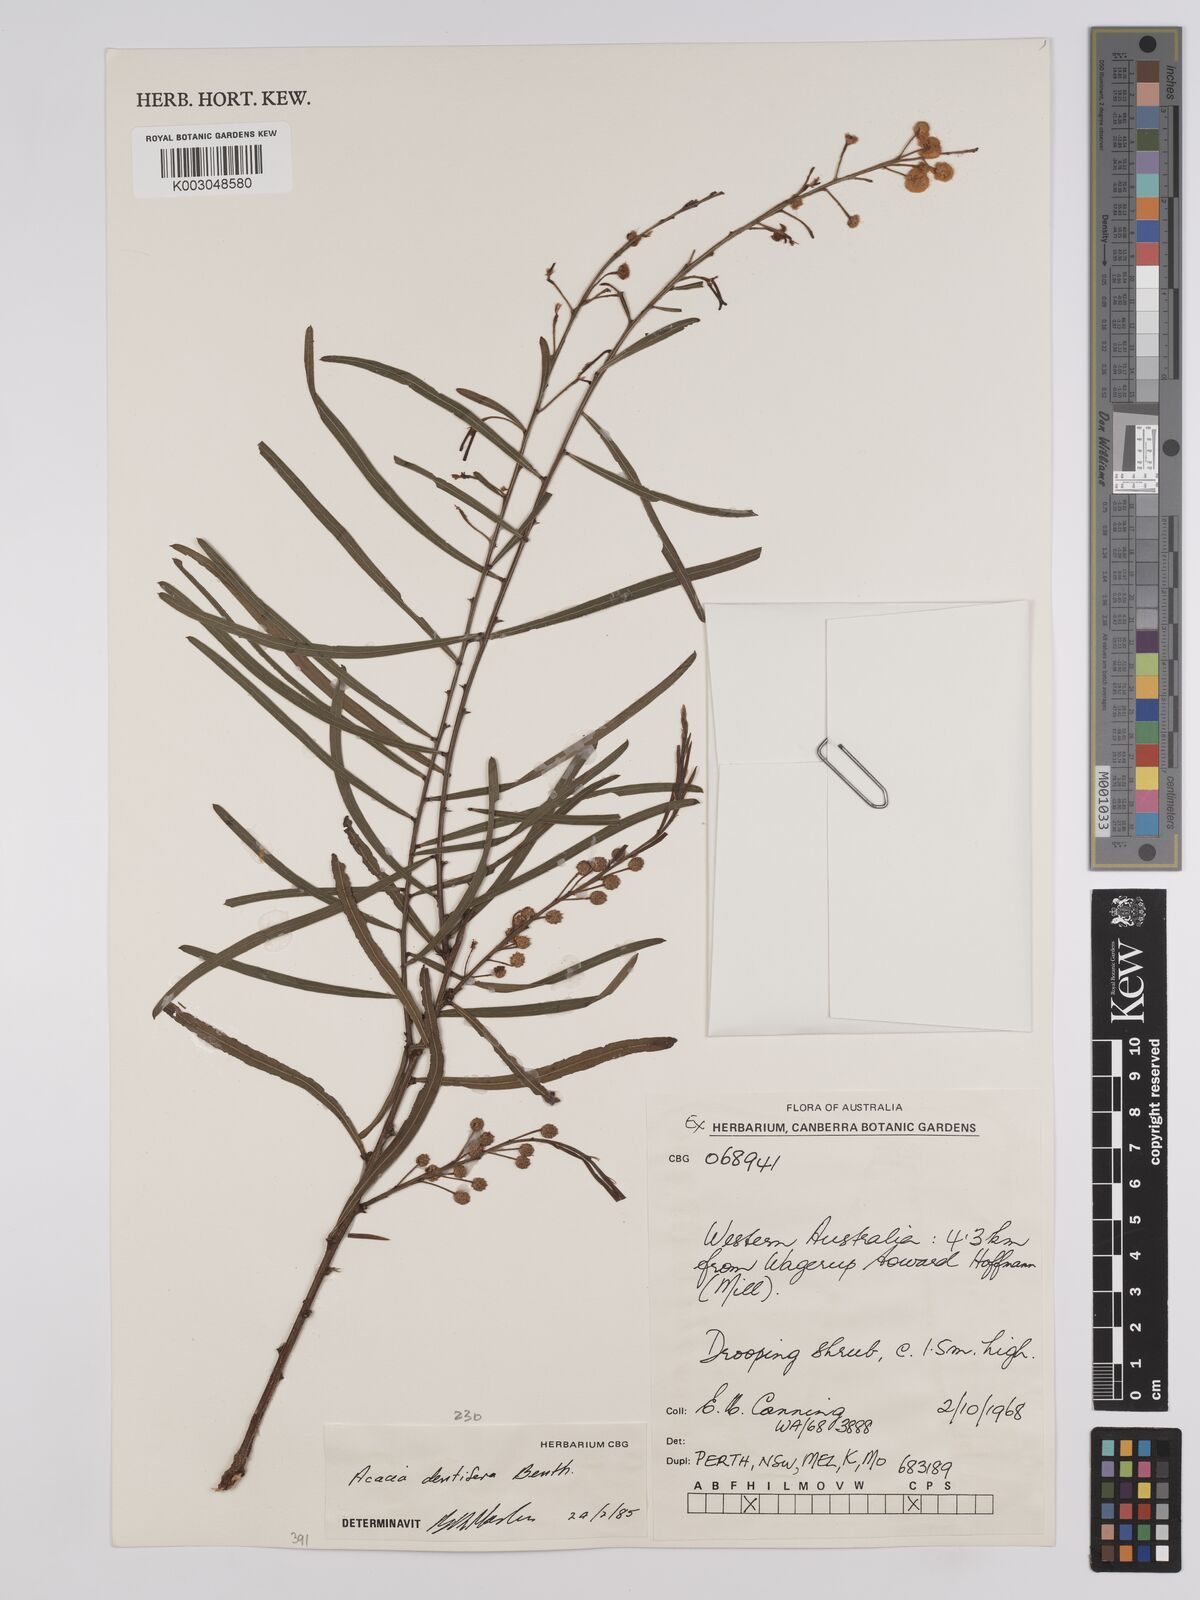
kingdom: Plantae
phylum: Tracheophyta
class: Magnoliopsida
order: Fabales
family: Fabaceae
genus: Acacia
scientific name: Acacia dentifera
